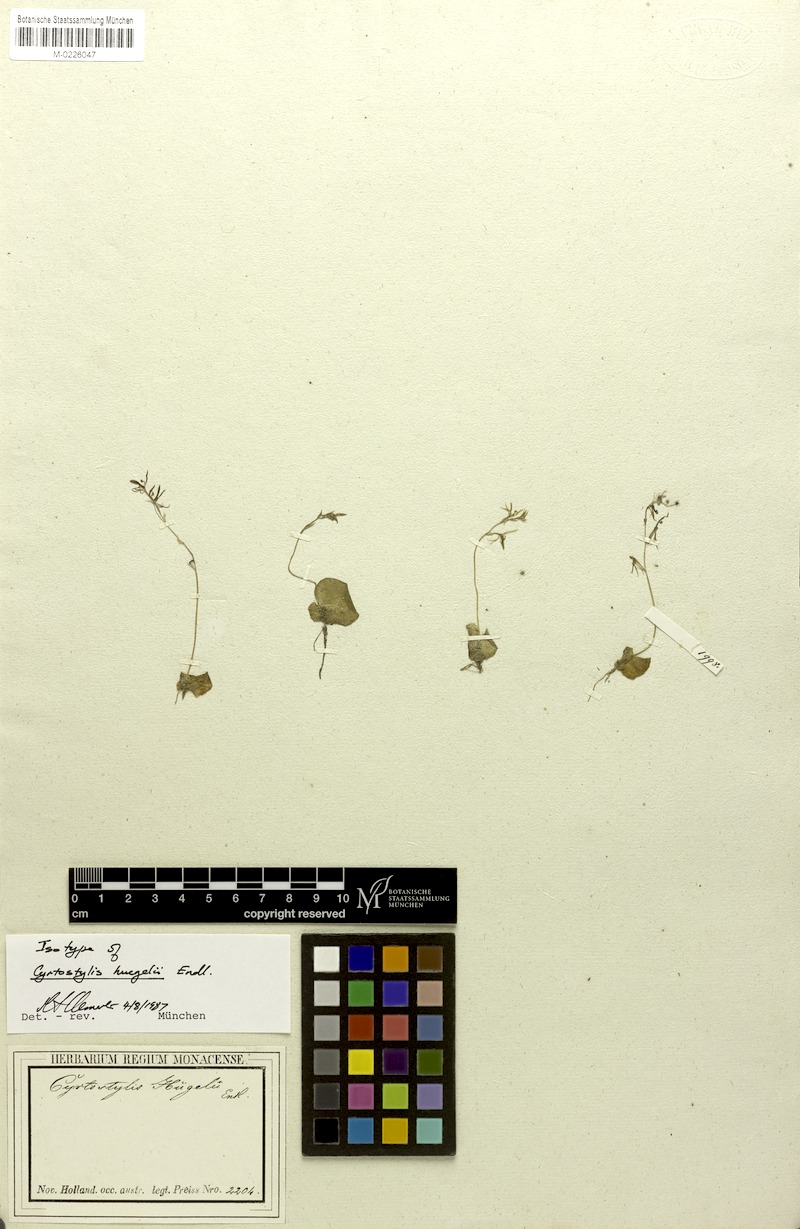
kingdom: Plantae
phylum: Tracheophyta
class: Liliopsida
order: Asparagales
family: Orchidaceae
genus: Cyrtostylis
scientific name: Cyrtostylis huegelii
